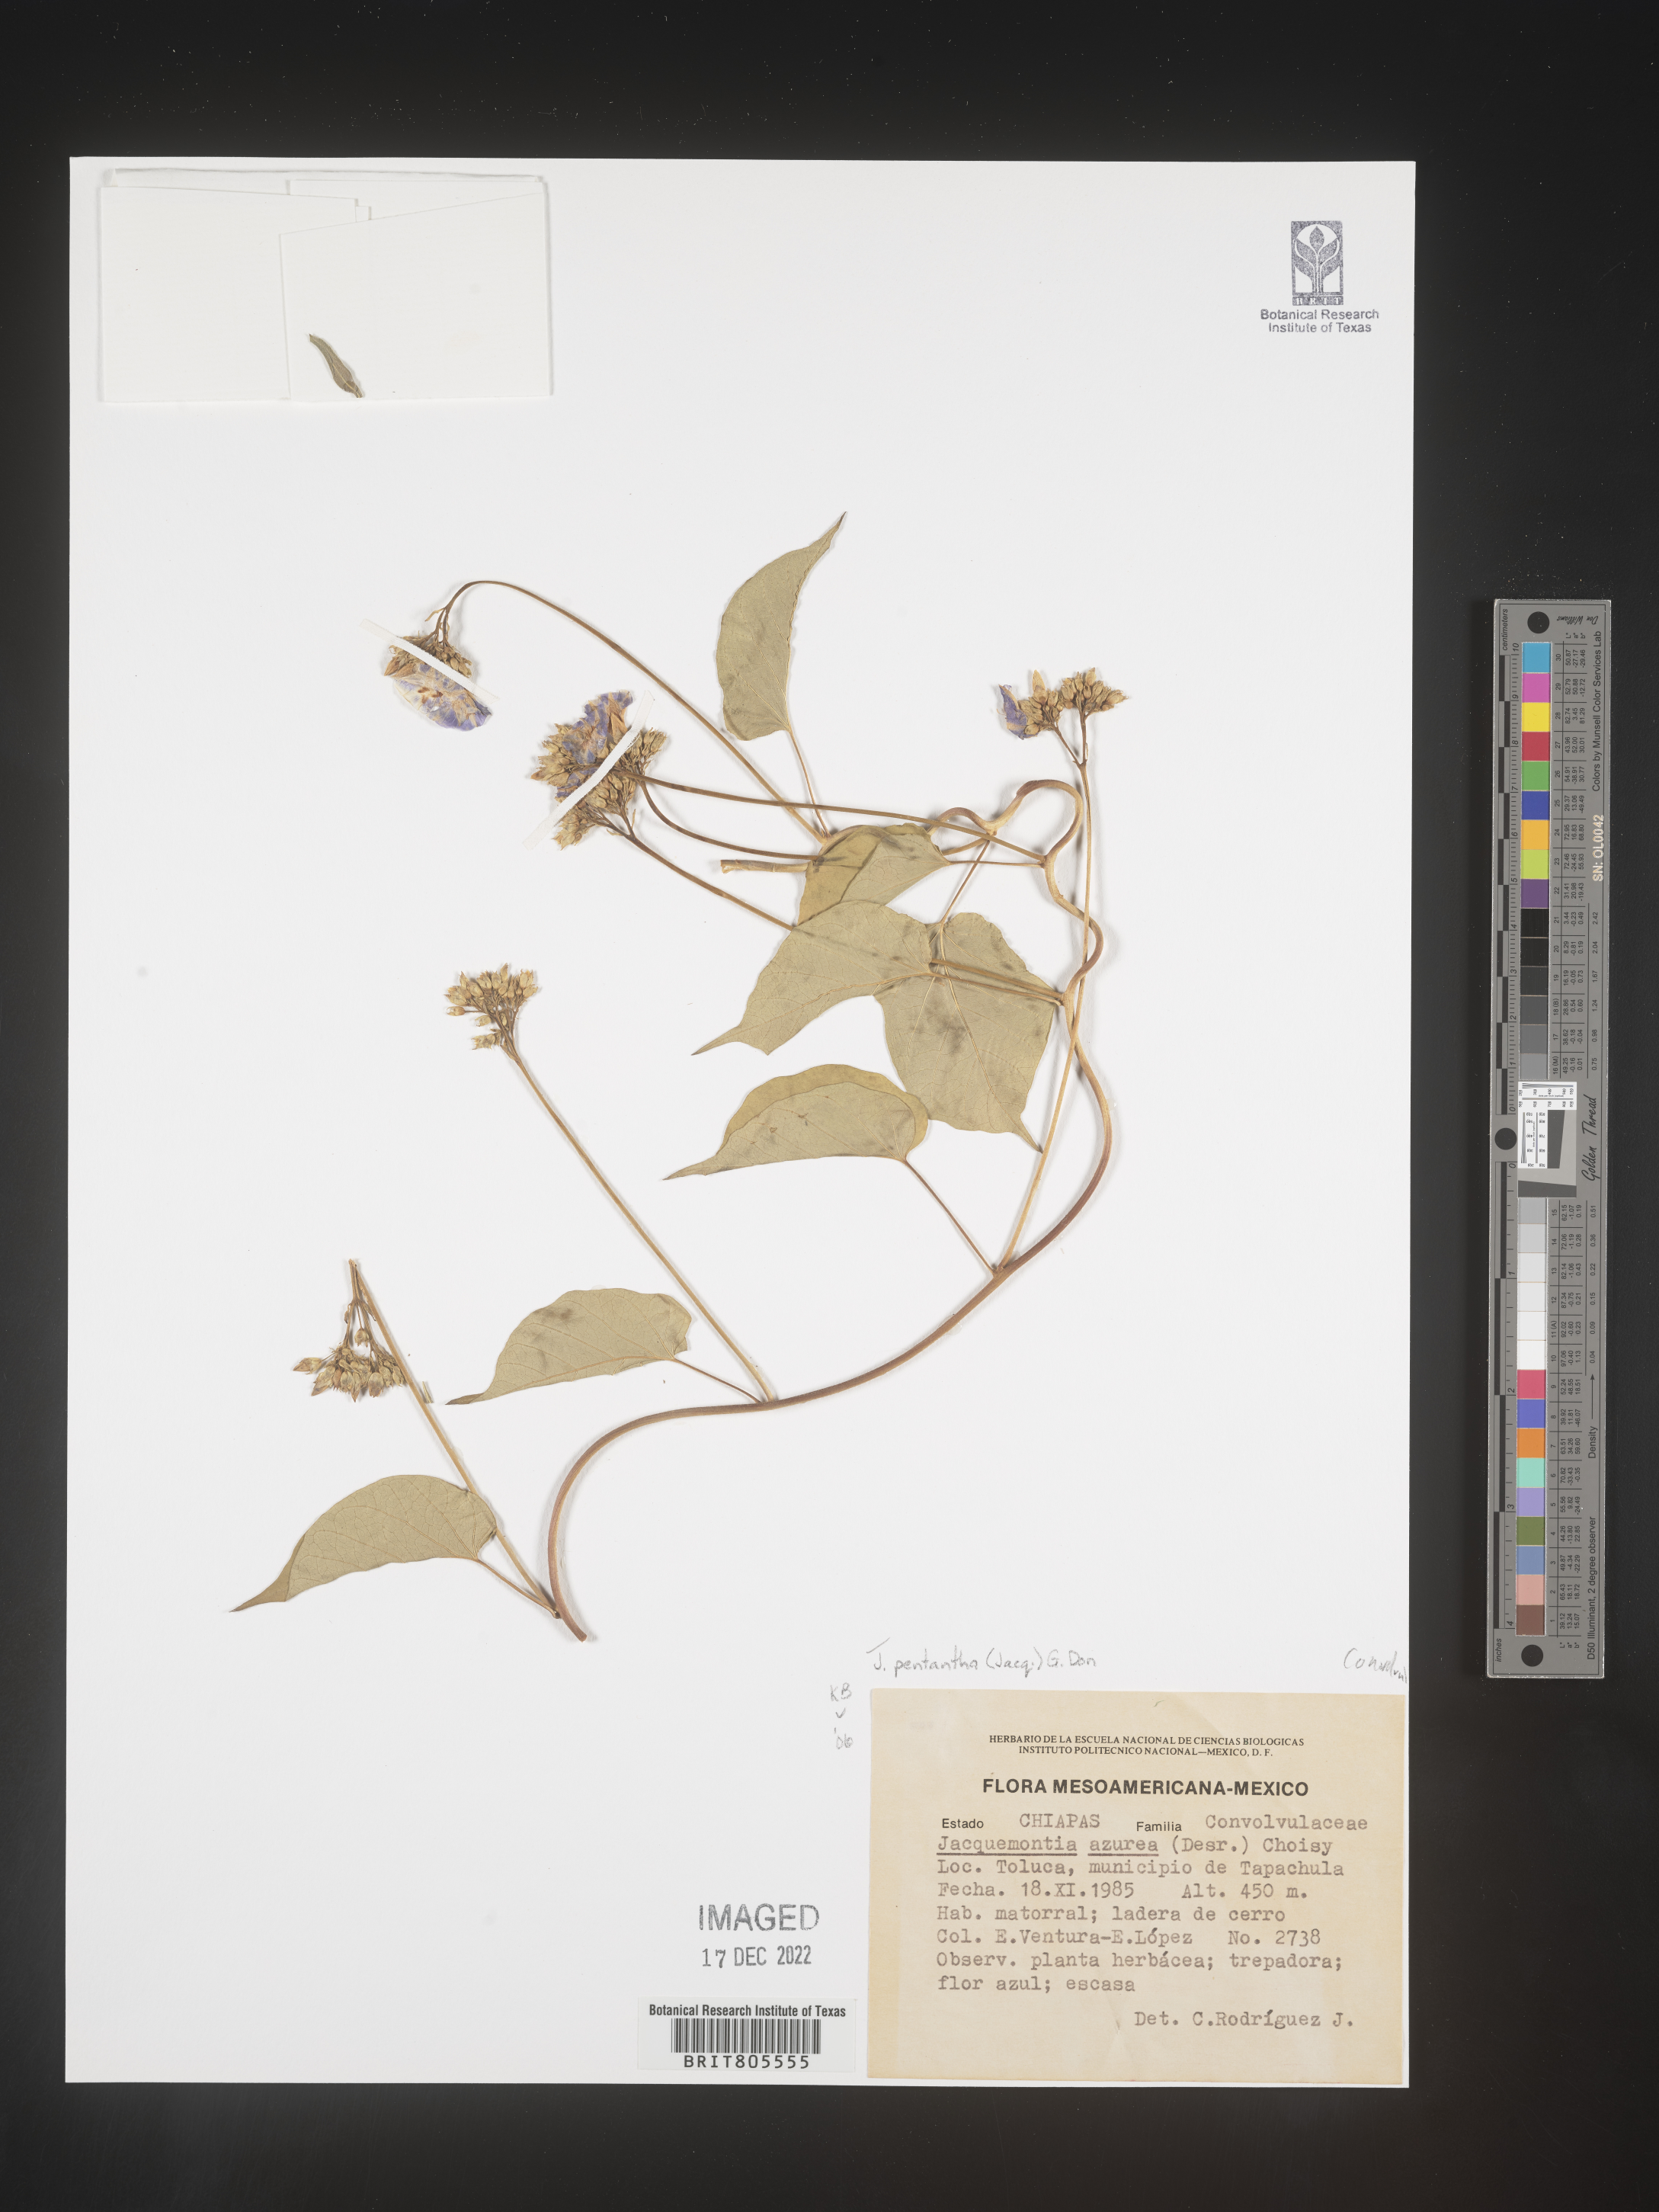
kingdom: Plantae
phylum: Tracheophyta
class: Magnoliopsida
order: Solanales
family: Convolvulaceae
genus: Jacquemontia
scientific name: Jacquemontia
